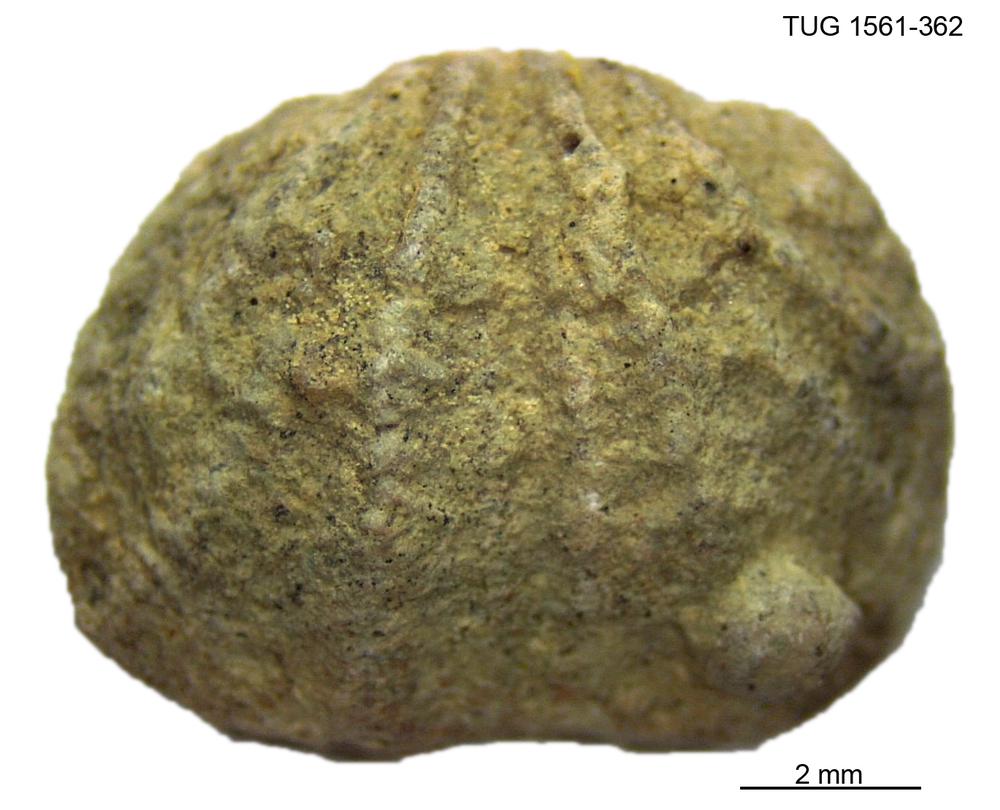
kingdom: Animalia
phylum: Brachiopoda
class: Rhynchonellata
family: Hesperorthidae
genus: Ptychopleurella
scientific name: Ptychopleurella Orthis bouchardi
